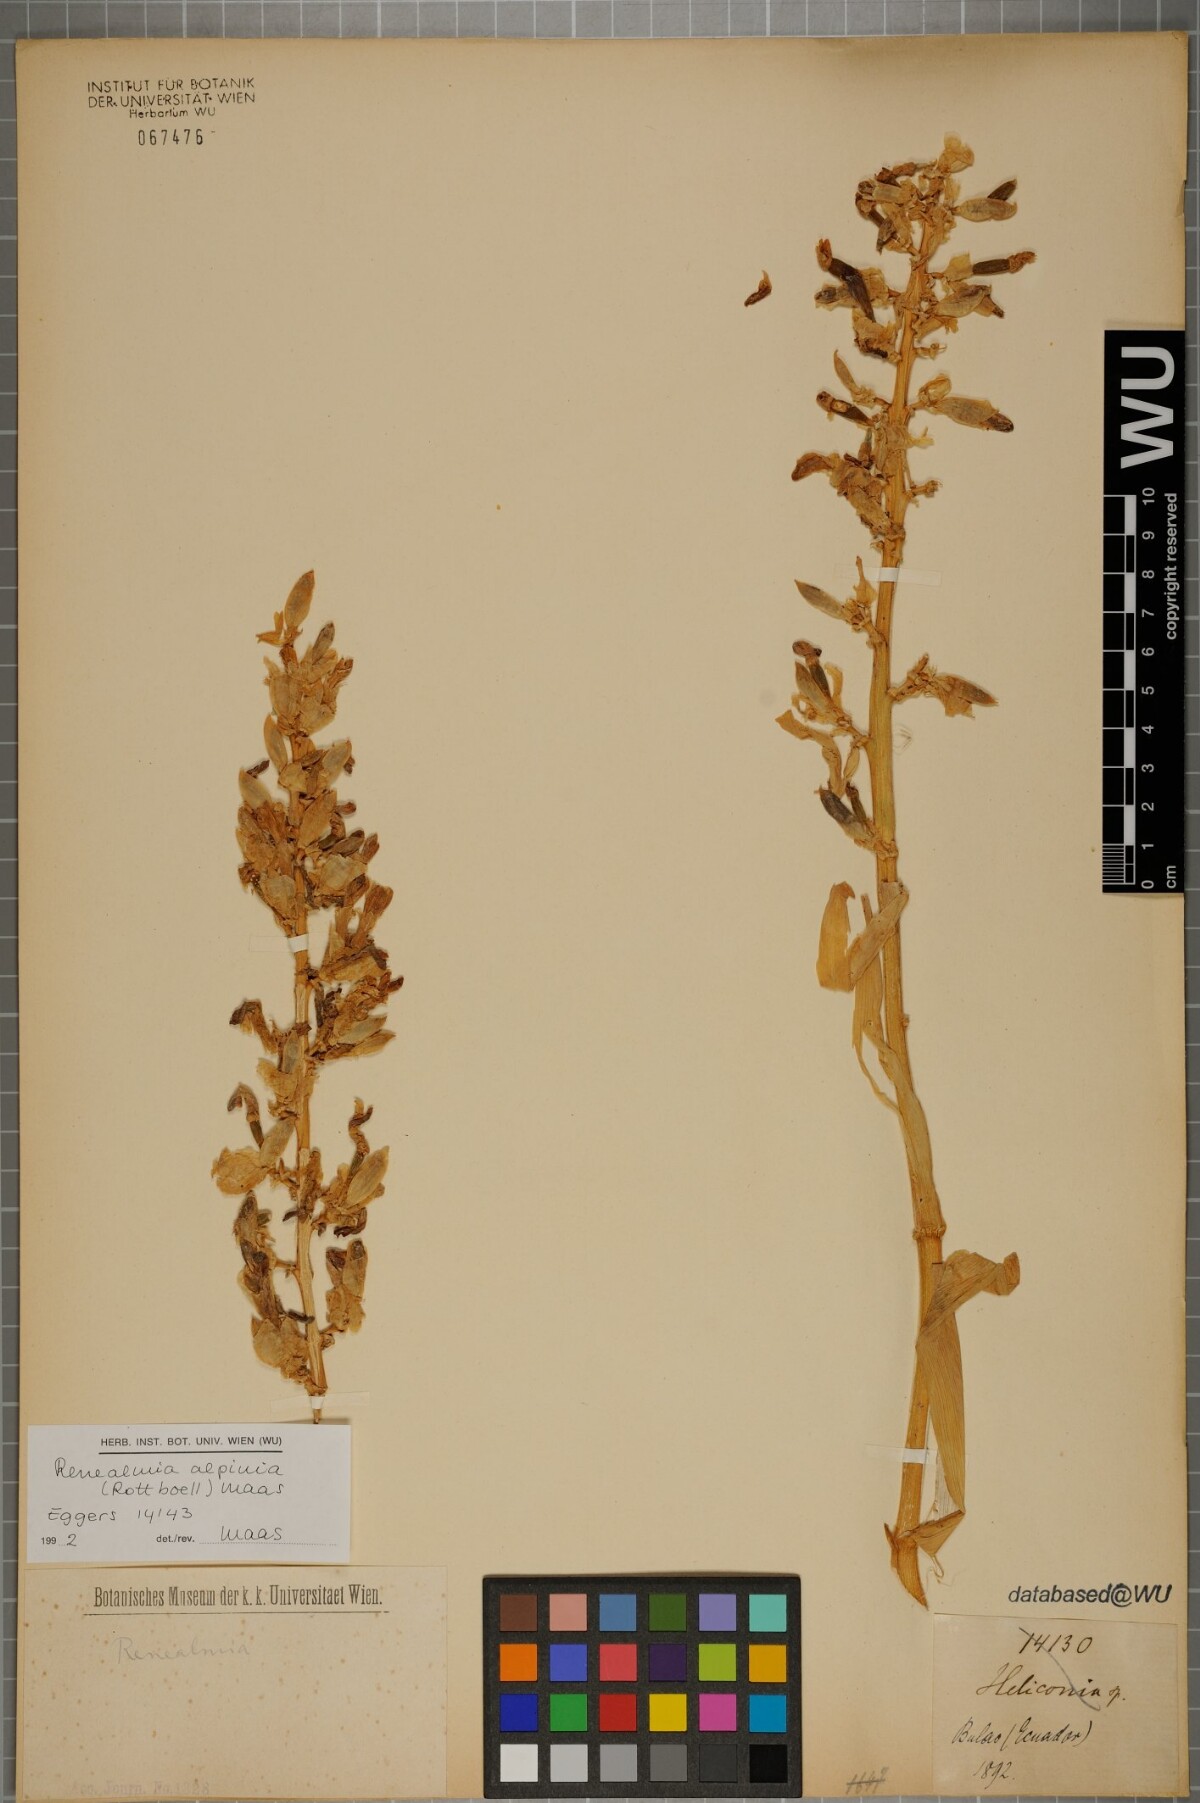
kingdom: Plantae
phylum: Tracheophyta
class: Liliopsida
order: Zingiberales
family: Zingiberaceae
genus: Renealmia
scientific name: Renealmia alpinia
